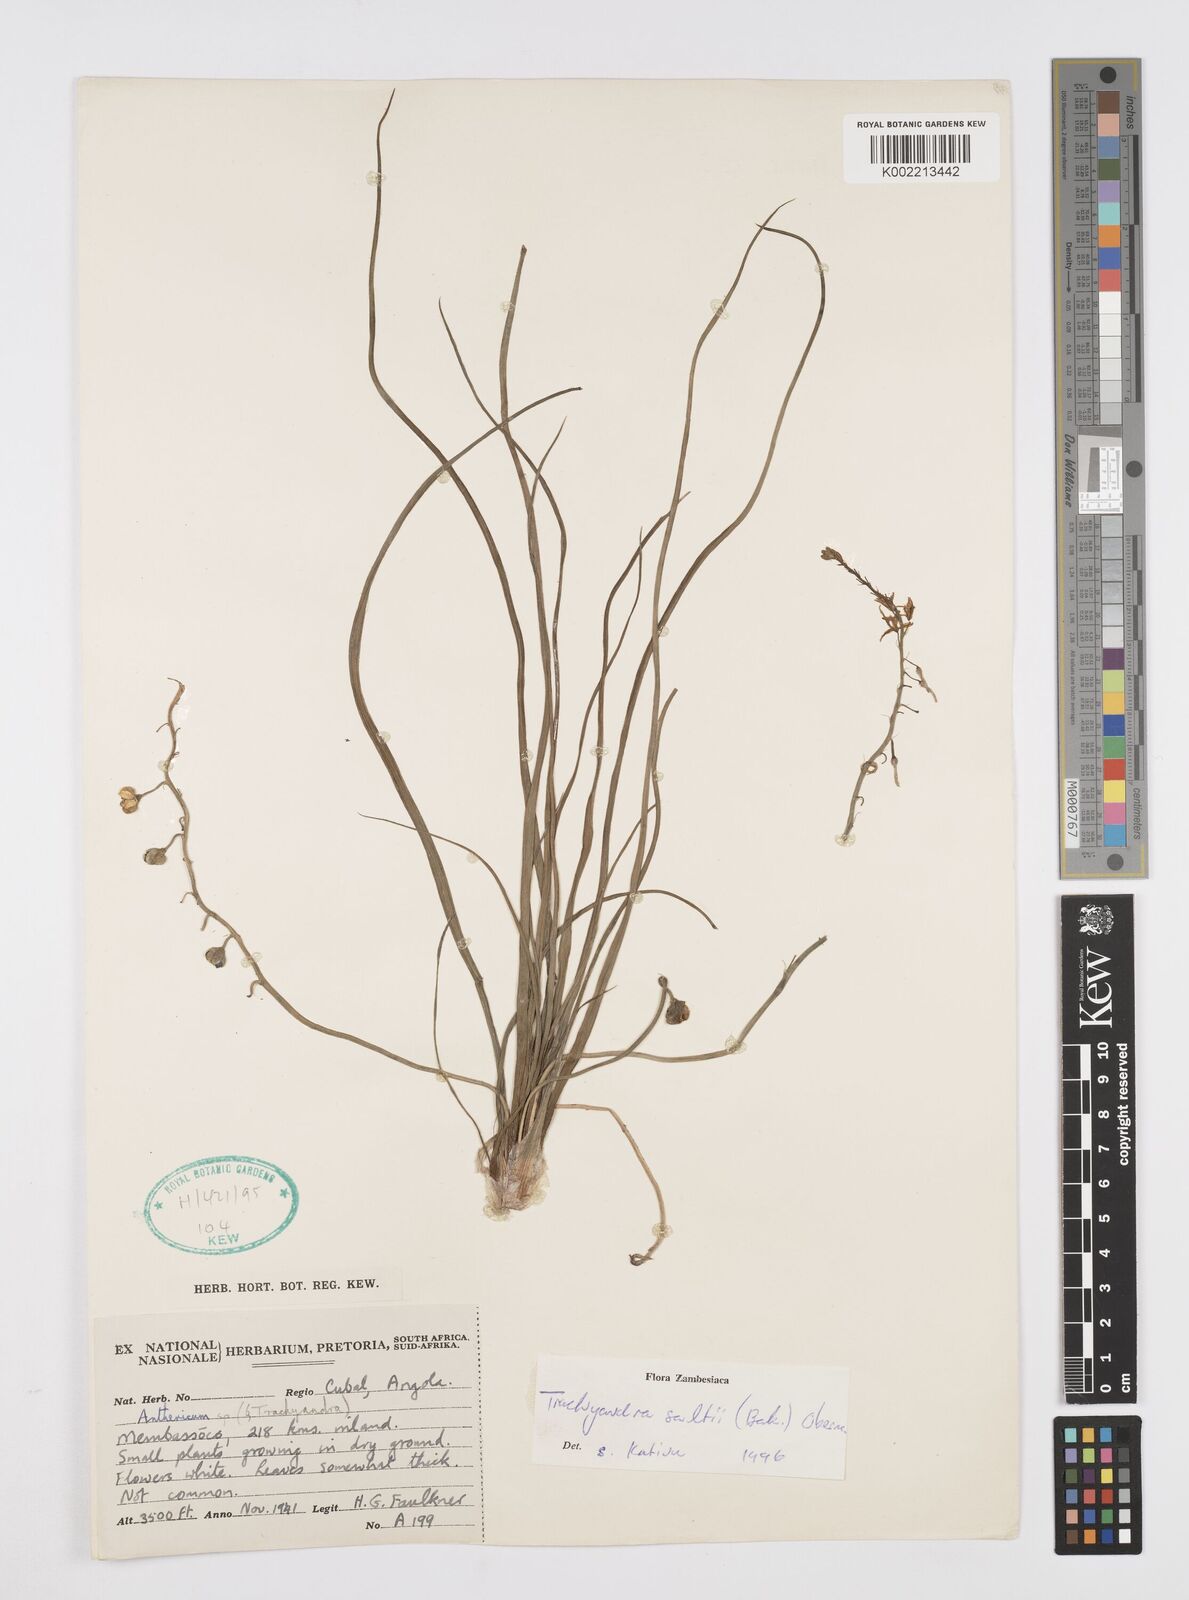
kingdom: Plantae
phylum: Tracheophyta
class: Liliopsida
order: Asparagales
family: Asphodelaceae
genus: Trachyandra
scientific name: Trachyandra saltii
